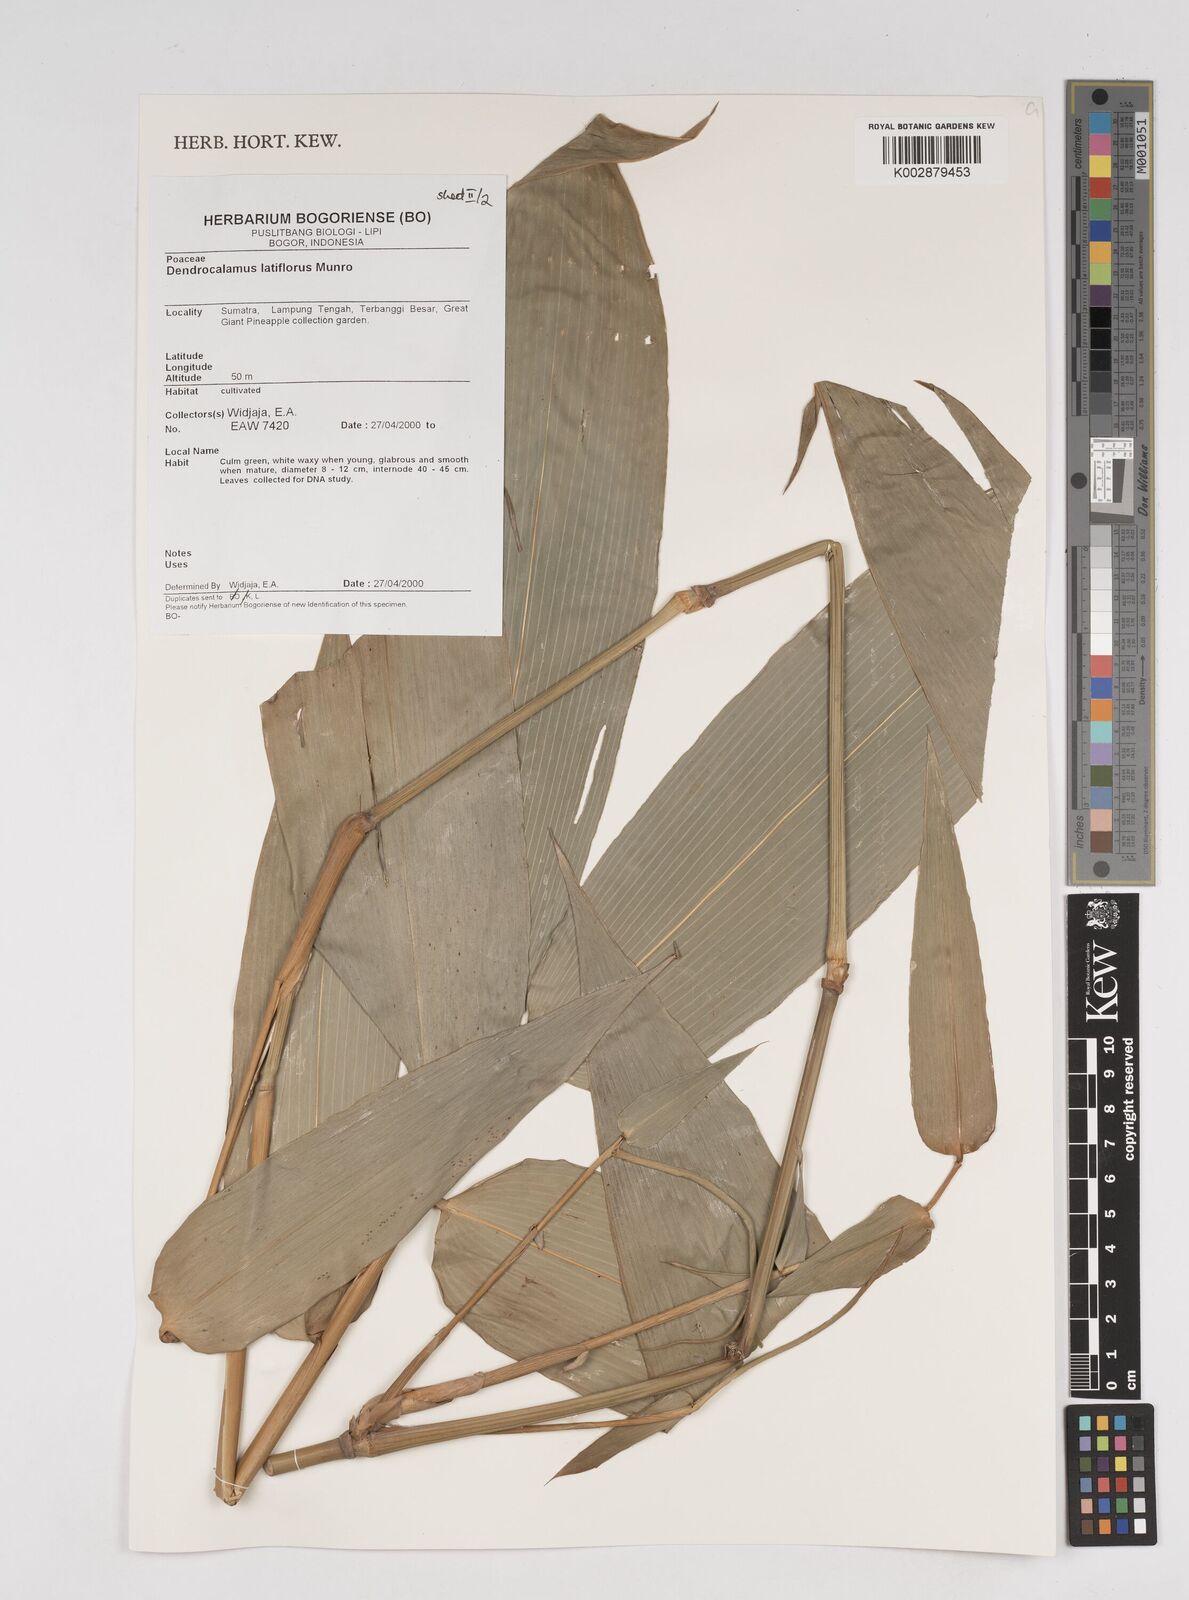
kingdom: Plantae
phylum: Tracheophyta
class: Liliopsida
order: Poales
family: Poaceae
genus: Dendrocalamus
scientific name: Dendrocalamus latiflorus
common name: Giant bamboo
